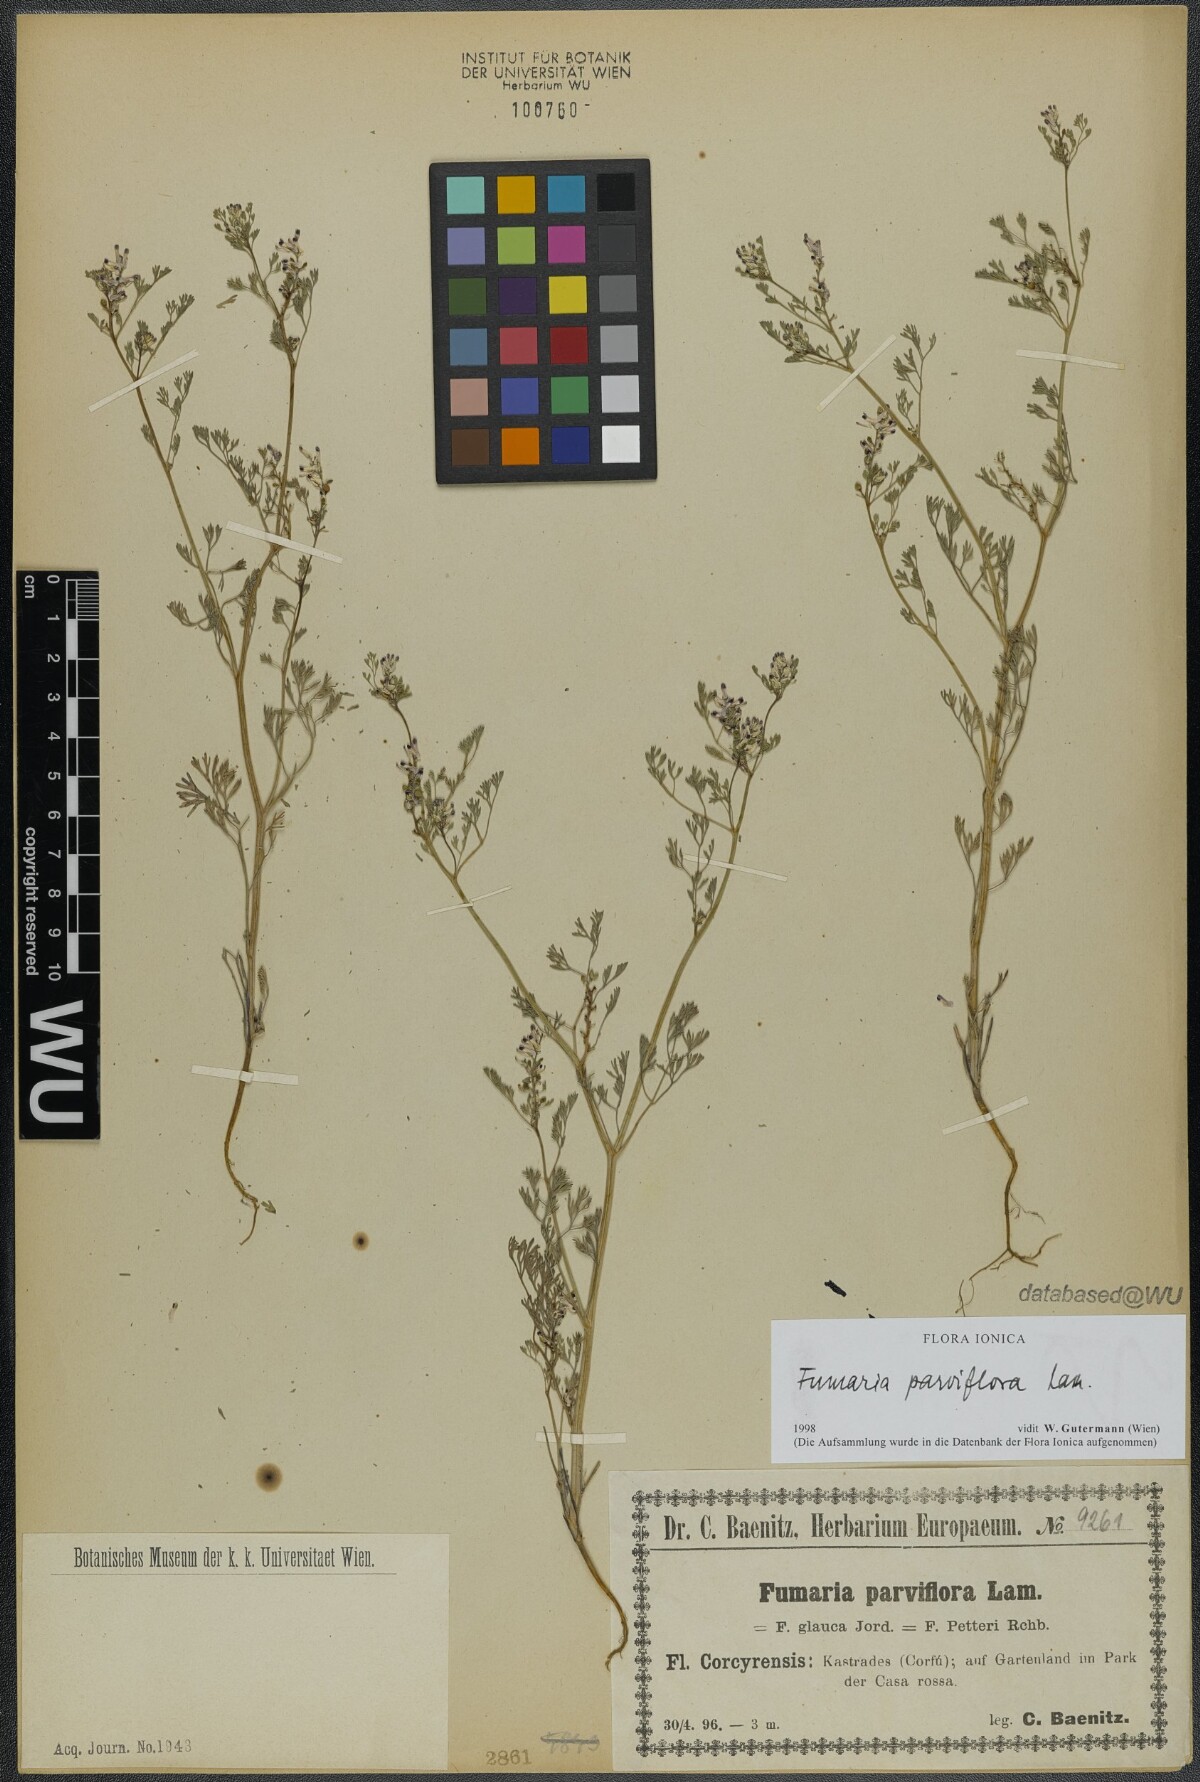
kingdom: Plantae
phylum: Tracheophyta
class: Magnoliopsida
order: Ranunculales
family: Papaveraceae
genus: Fumaria
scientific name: Fumaria parviflora
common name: Fine-leaved fumitory
